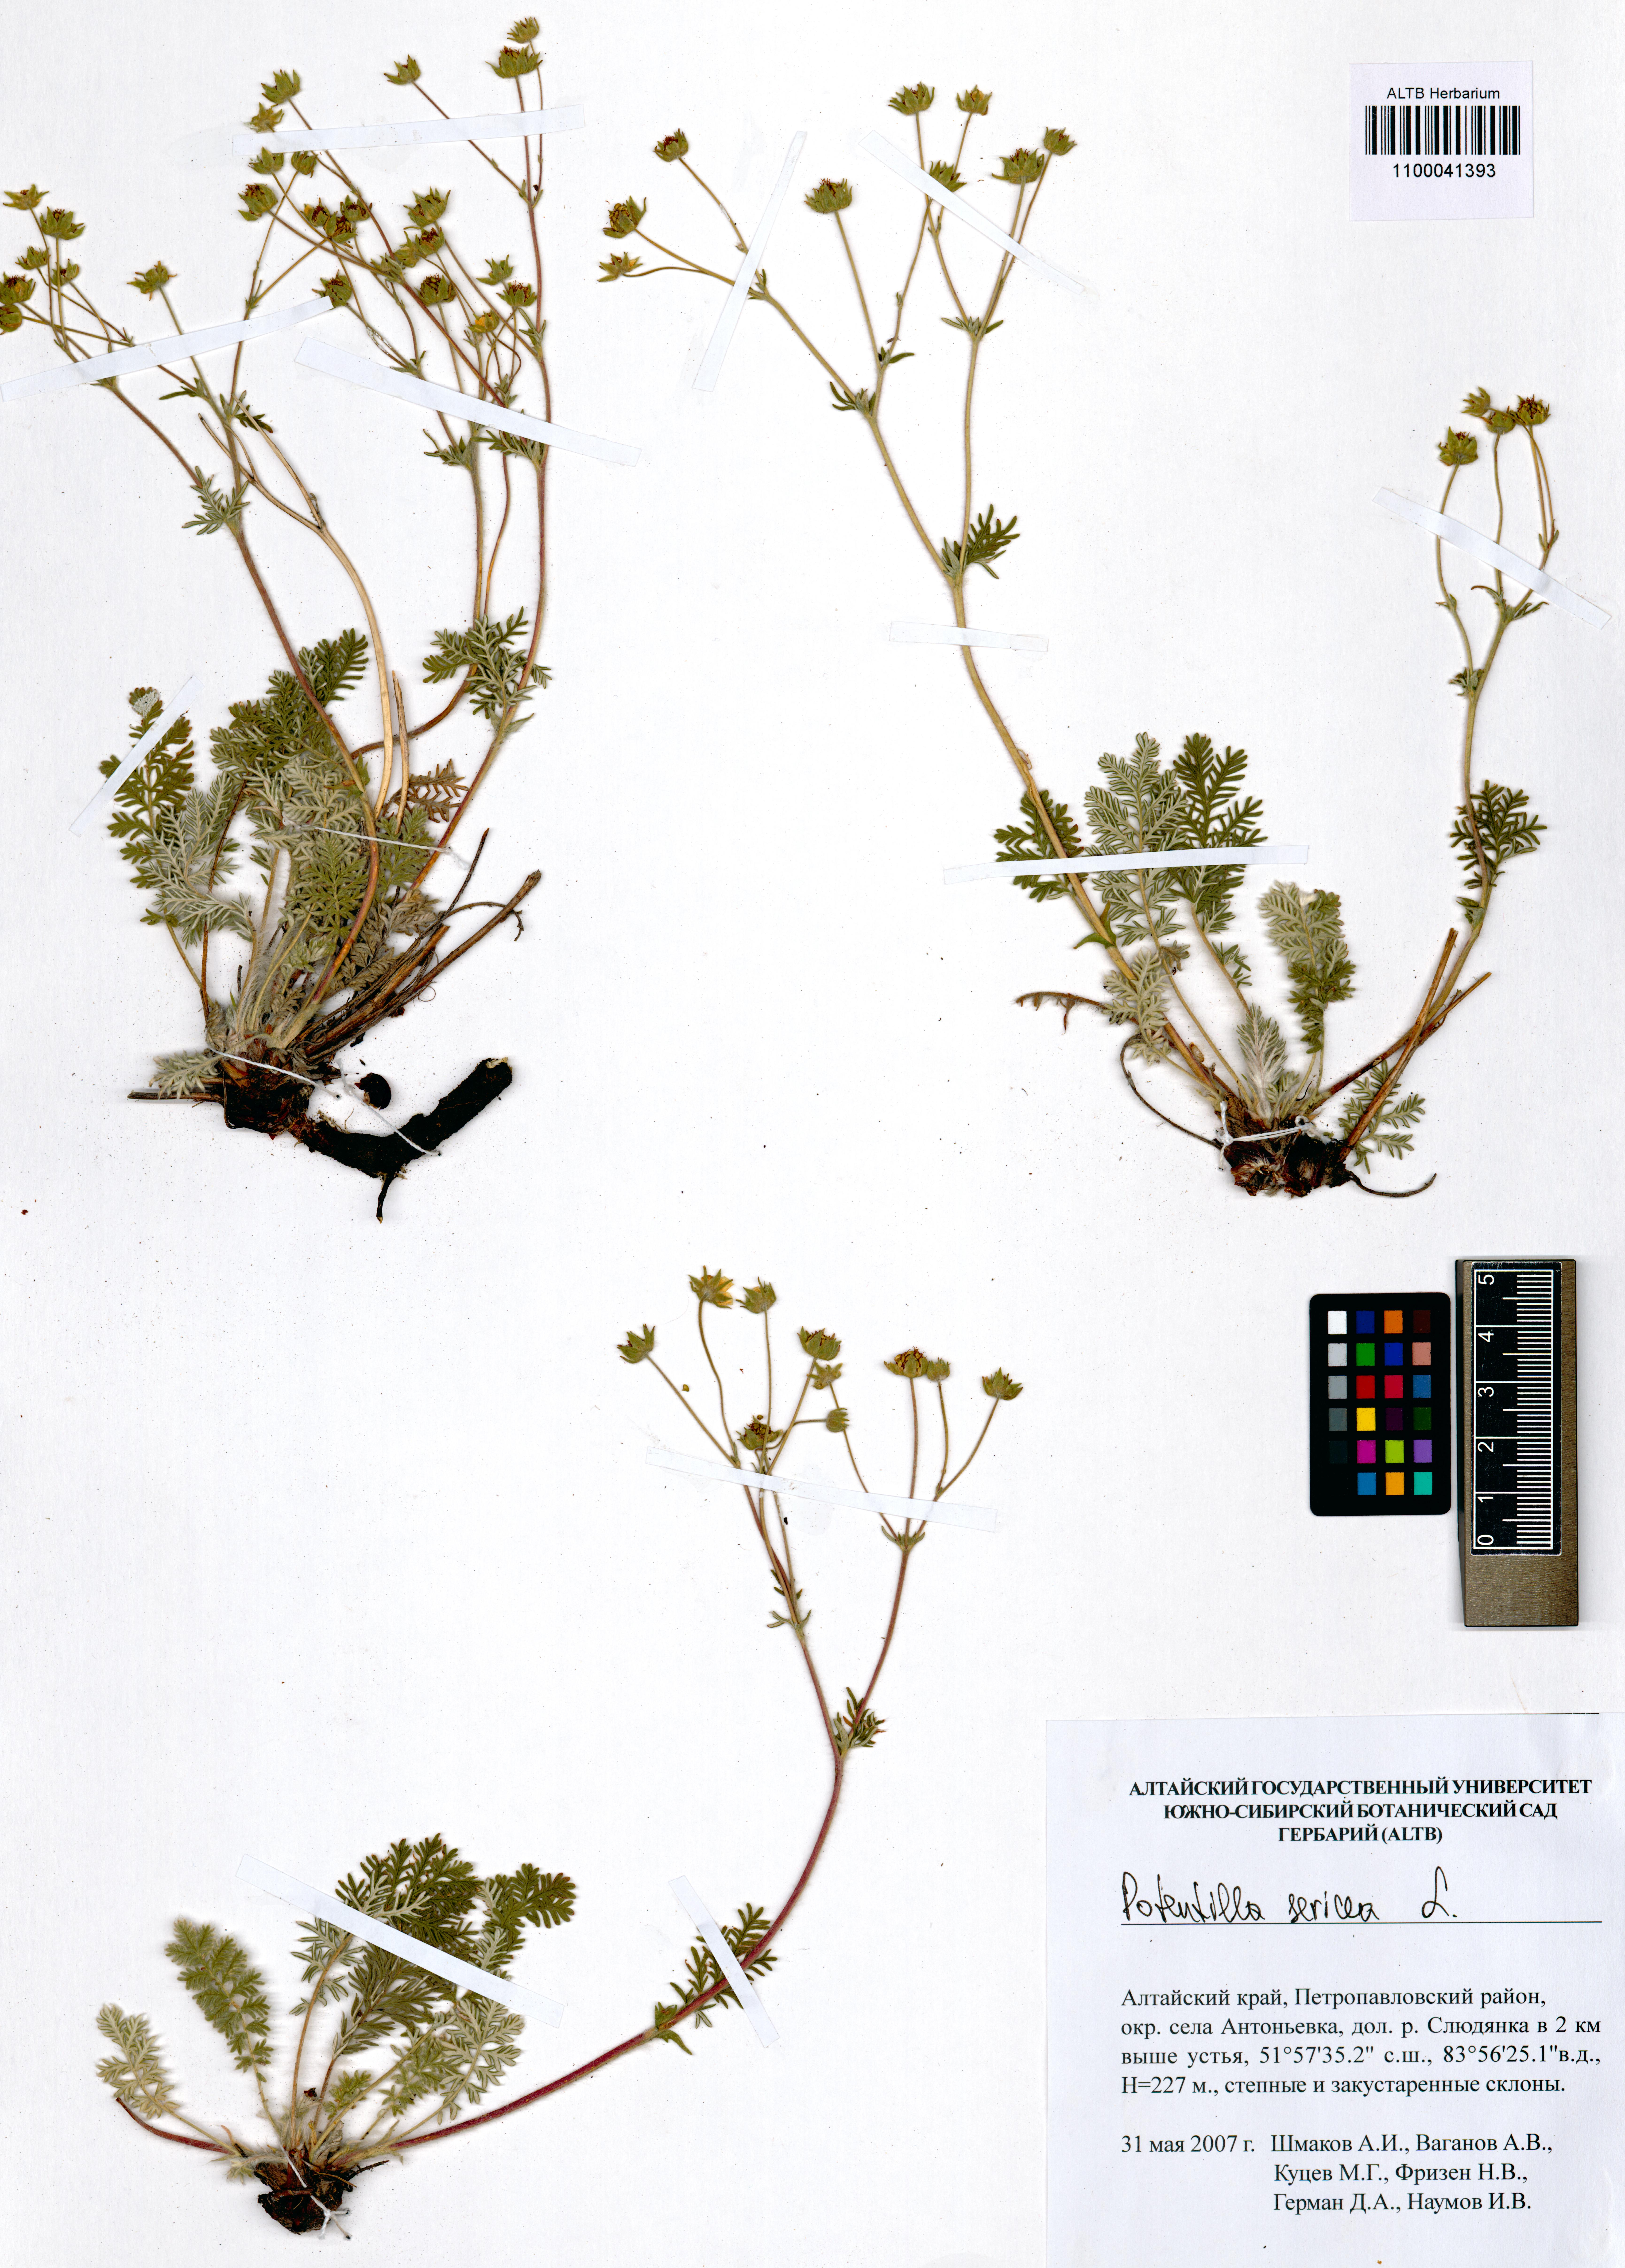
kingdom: Plantae
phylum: Tracheophyta
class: Magnoliopsida
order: Rosales
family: Rosaceae
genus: Potentilla
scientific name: Potentilla sericea
